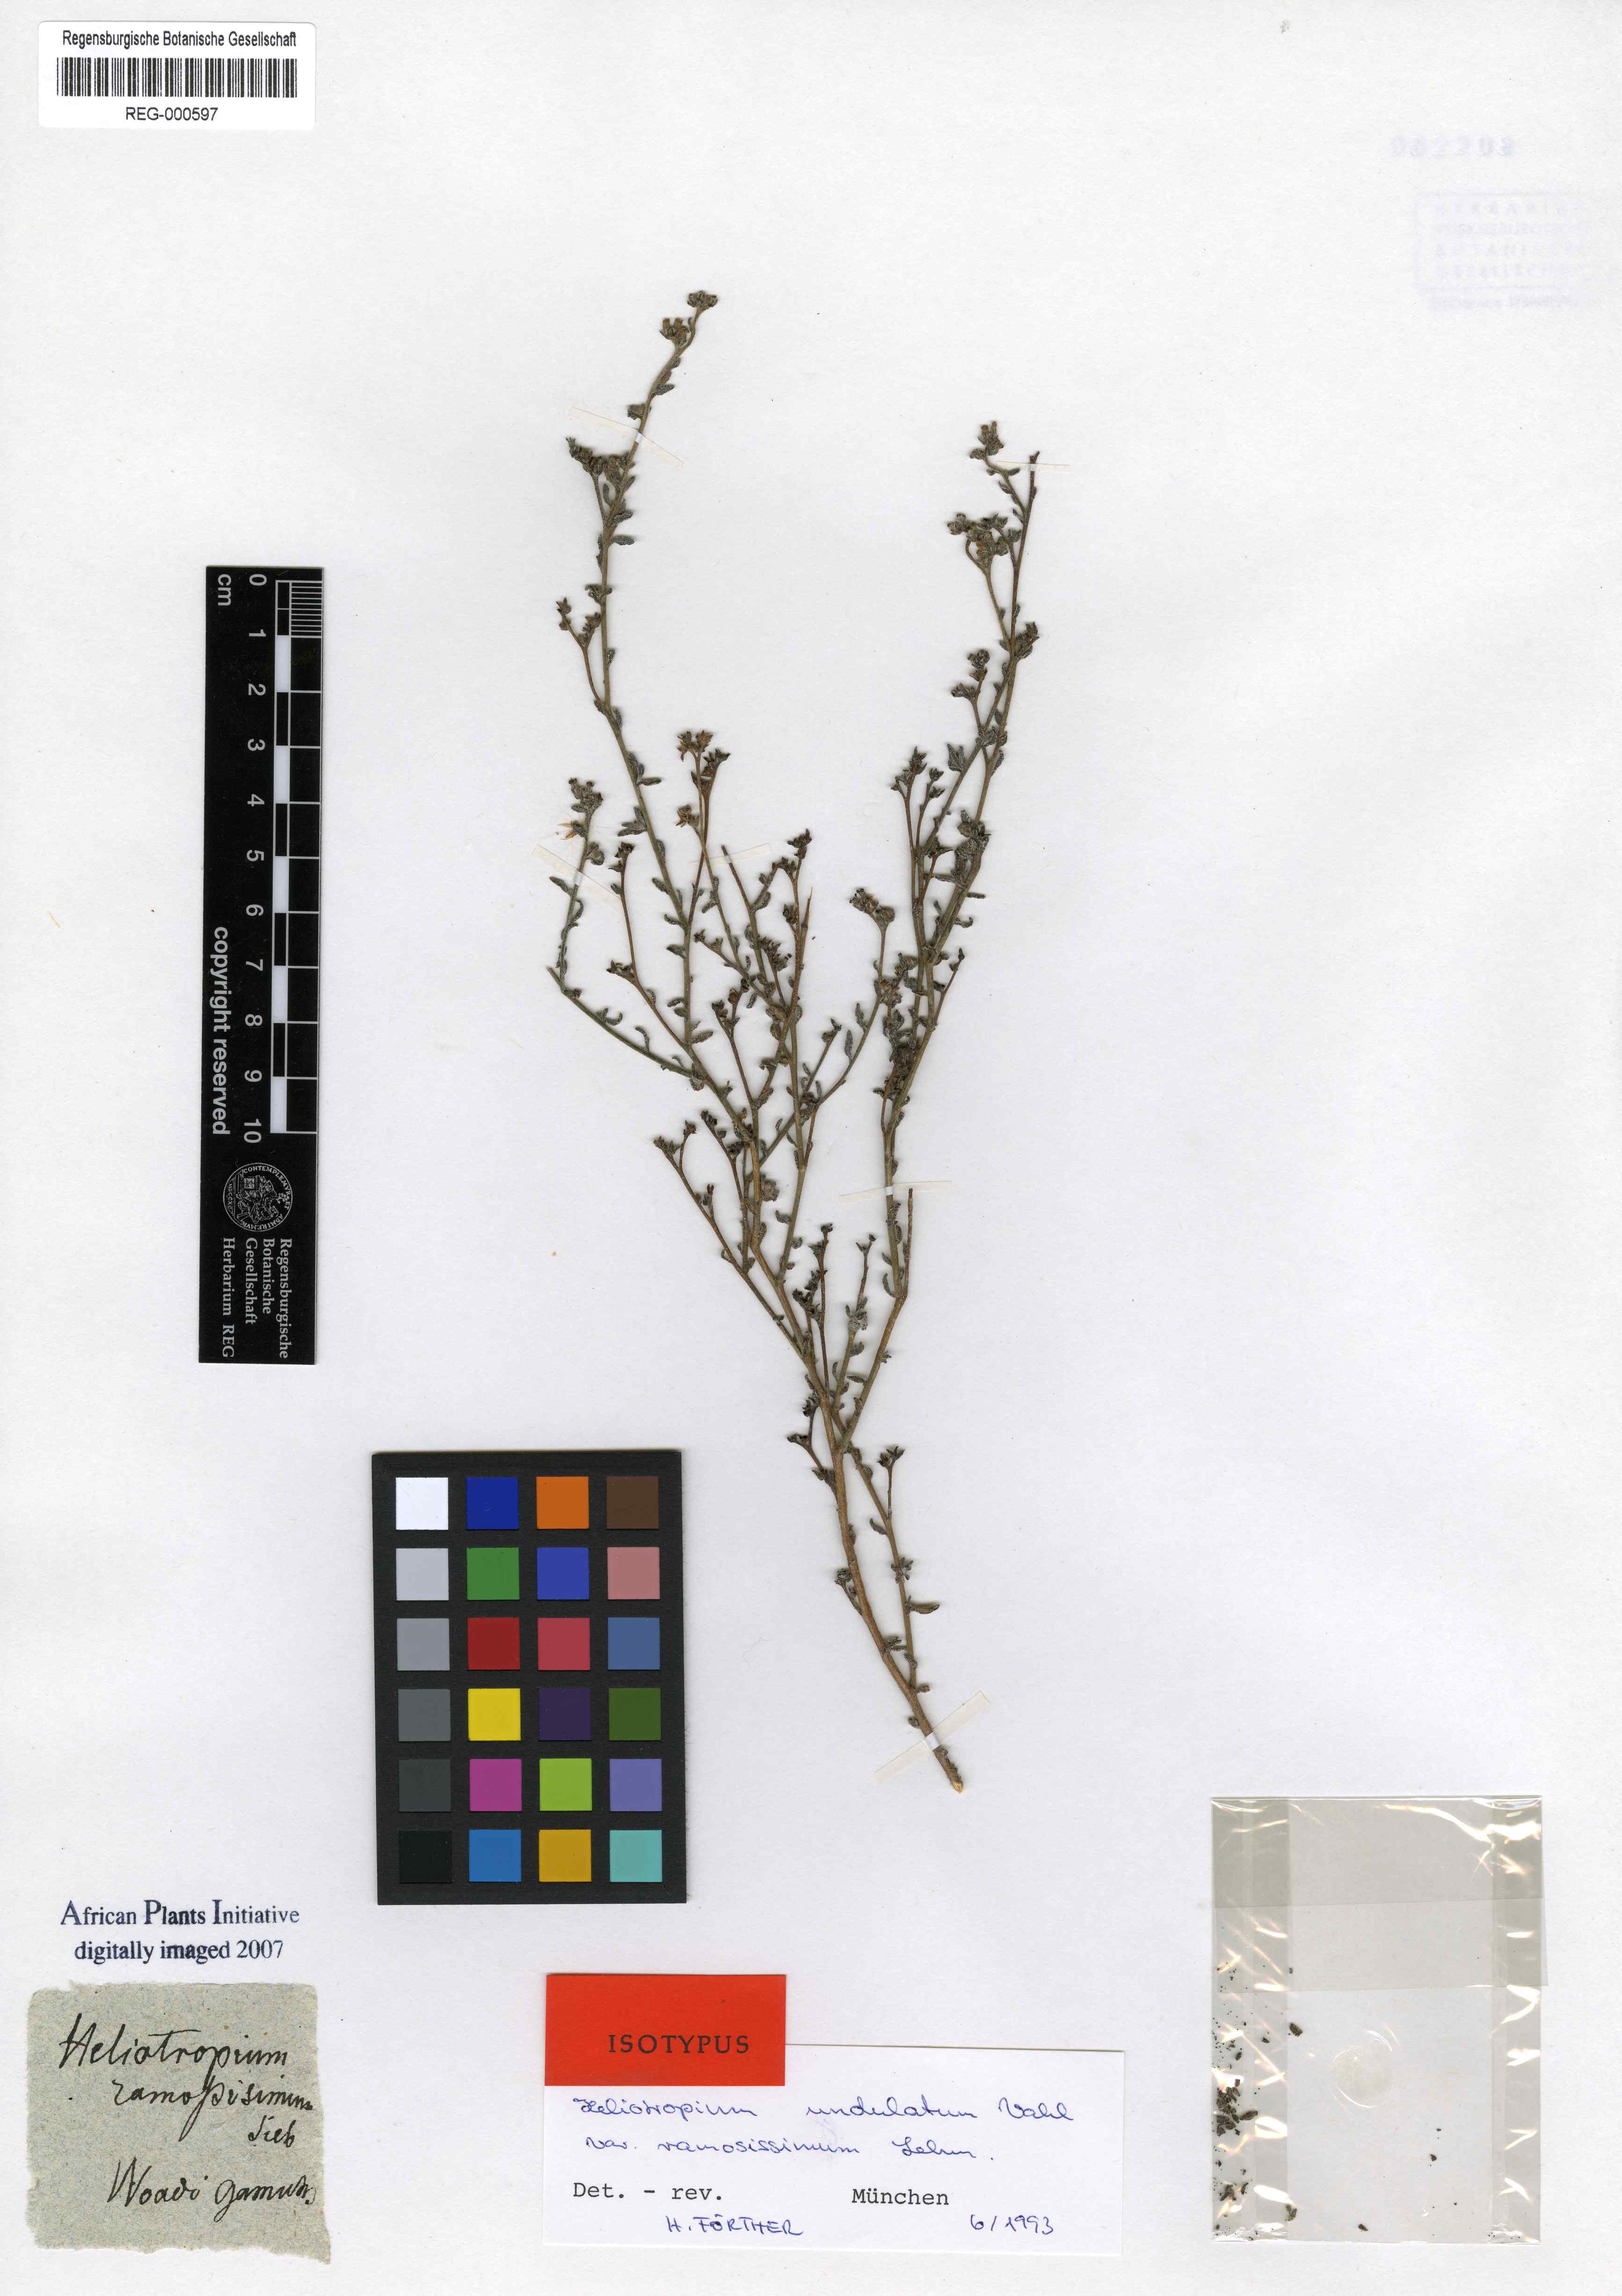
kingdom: Plantae
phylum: Tracheophyta
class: Magnoliopsida
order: Boraginales
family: Heliotropiaceae
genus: Heliotropium
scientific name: Heliotropium ramosissimum
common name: Wavy heliotrope
